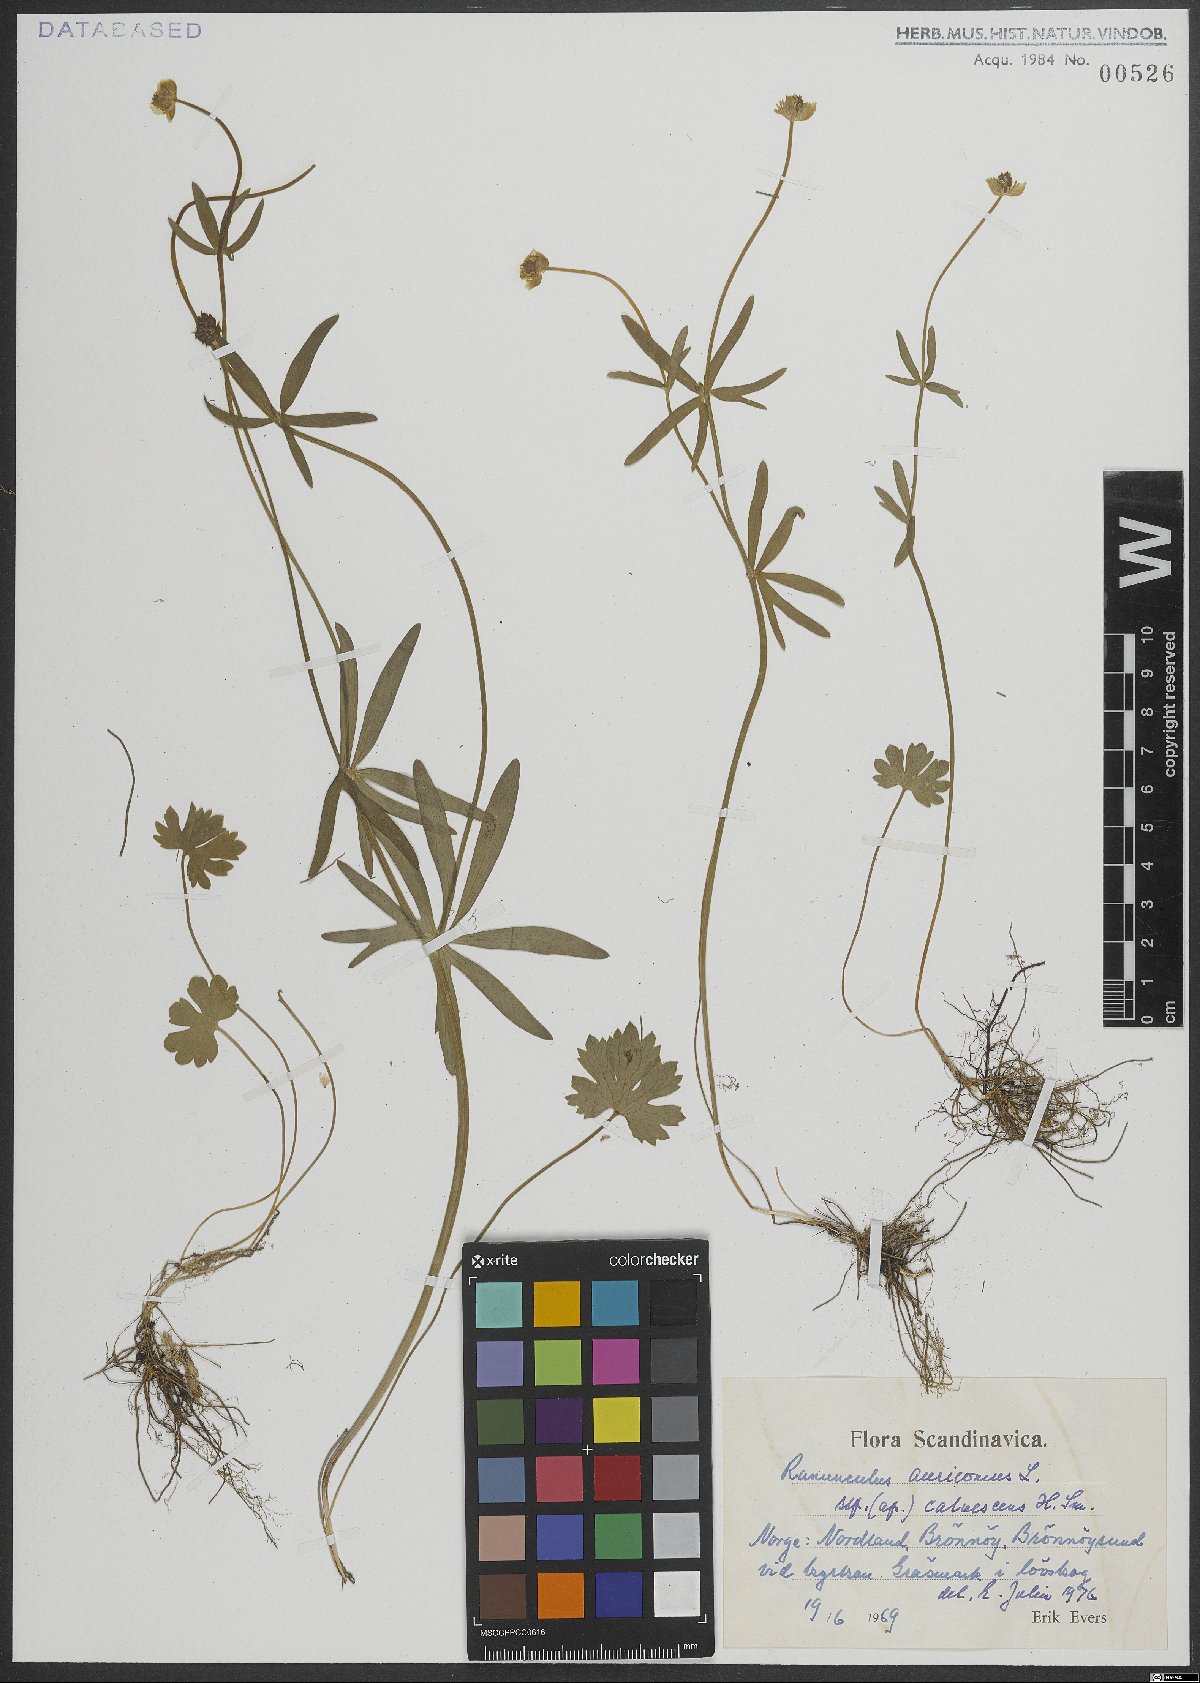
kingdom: Plantae
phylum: Tracheophyta
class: Magnoliopsida
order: Ranunculales
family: Ranunculaceae
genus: Ranunculus
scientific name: Ranunculus auricomus
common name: Goldilocks buttercup
